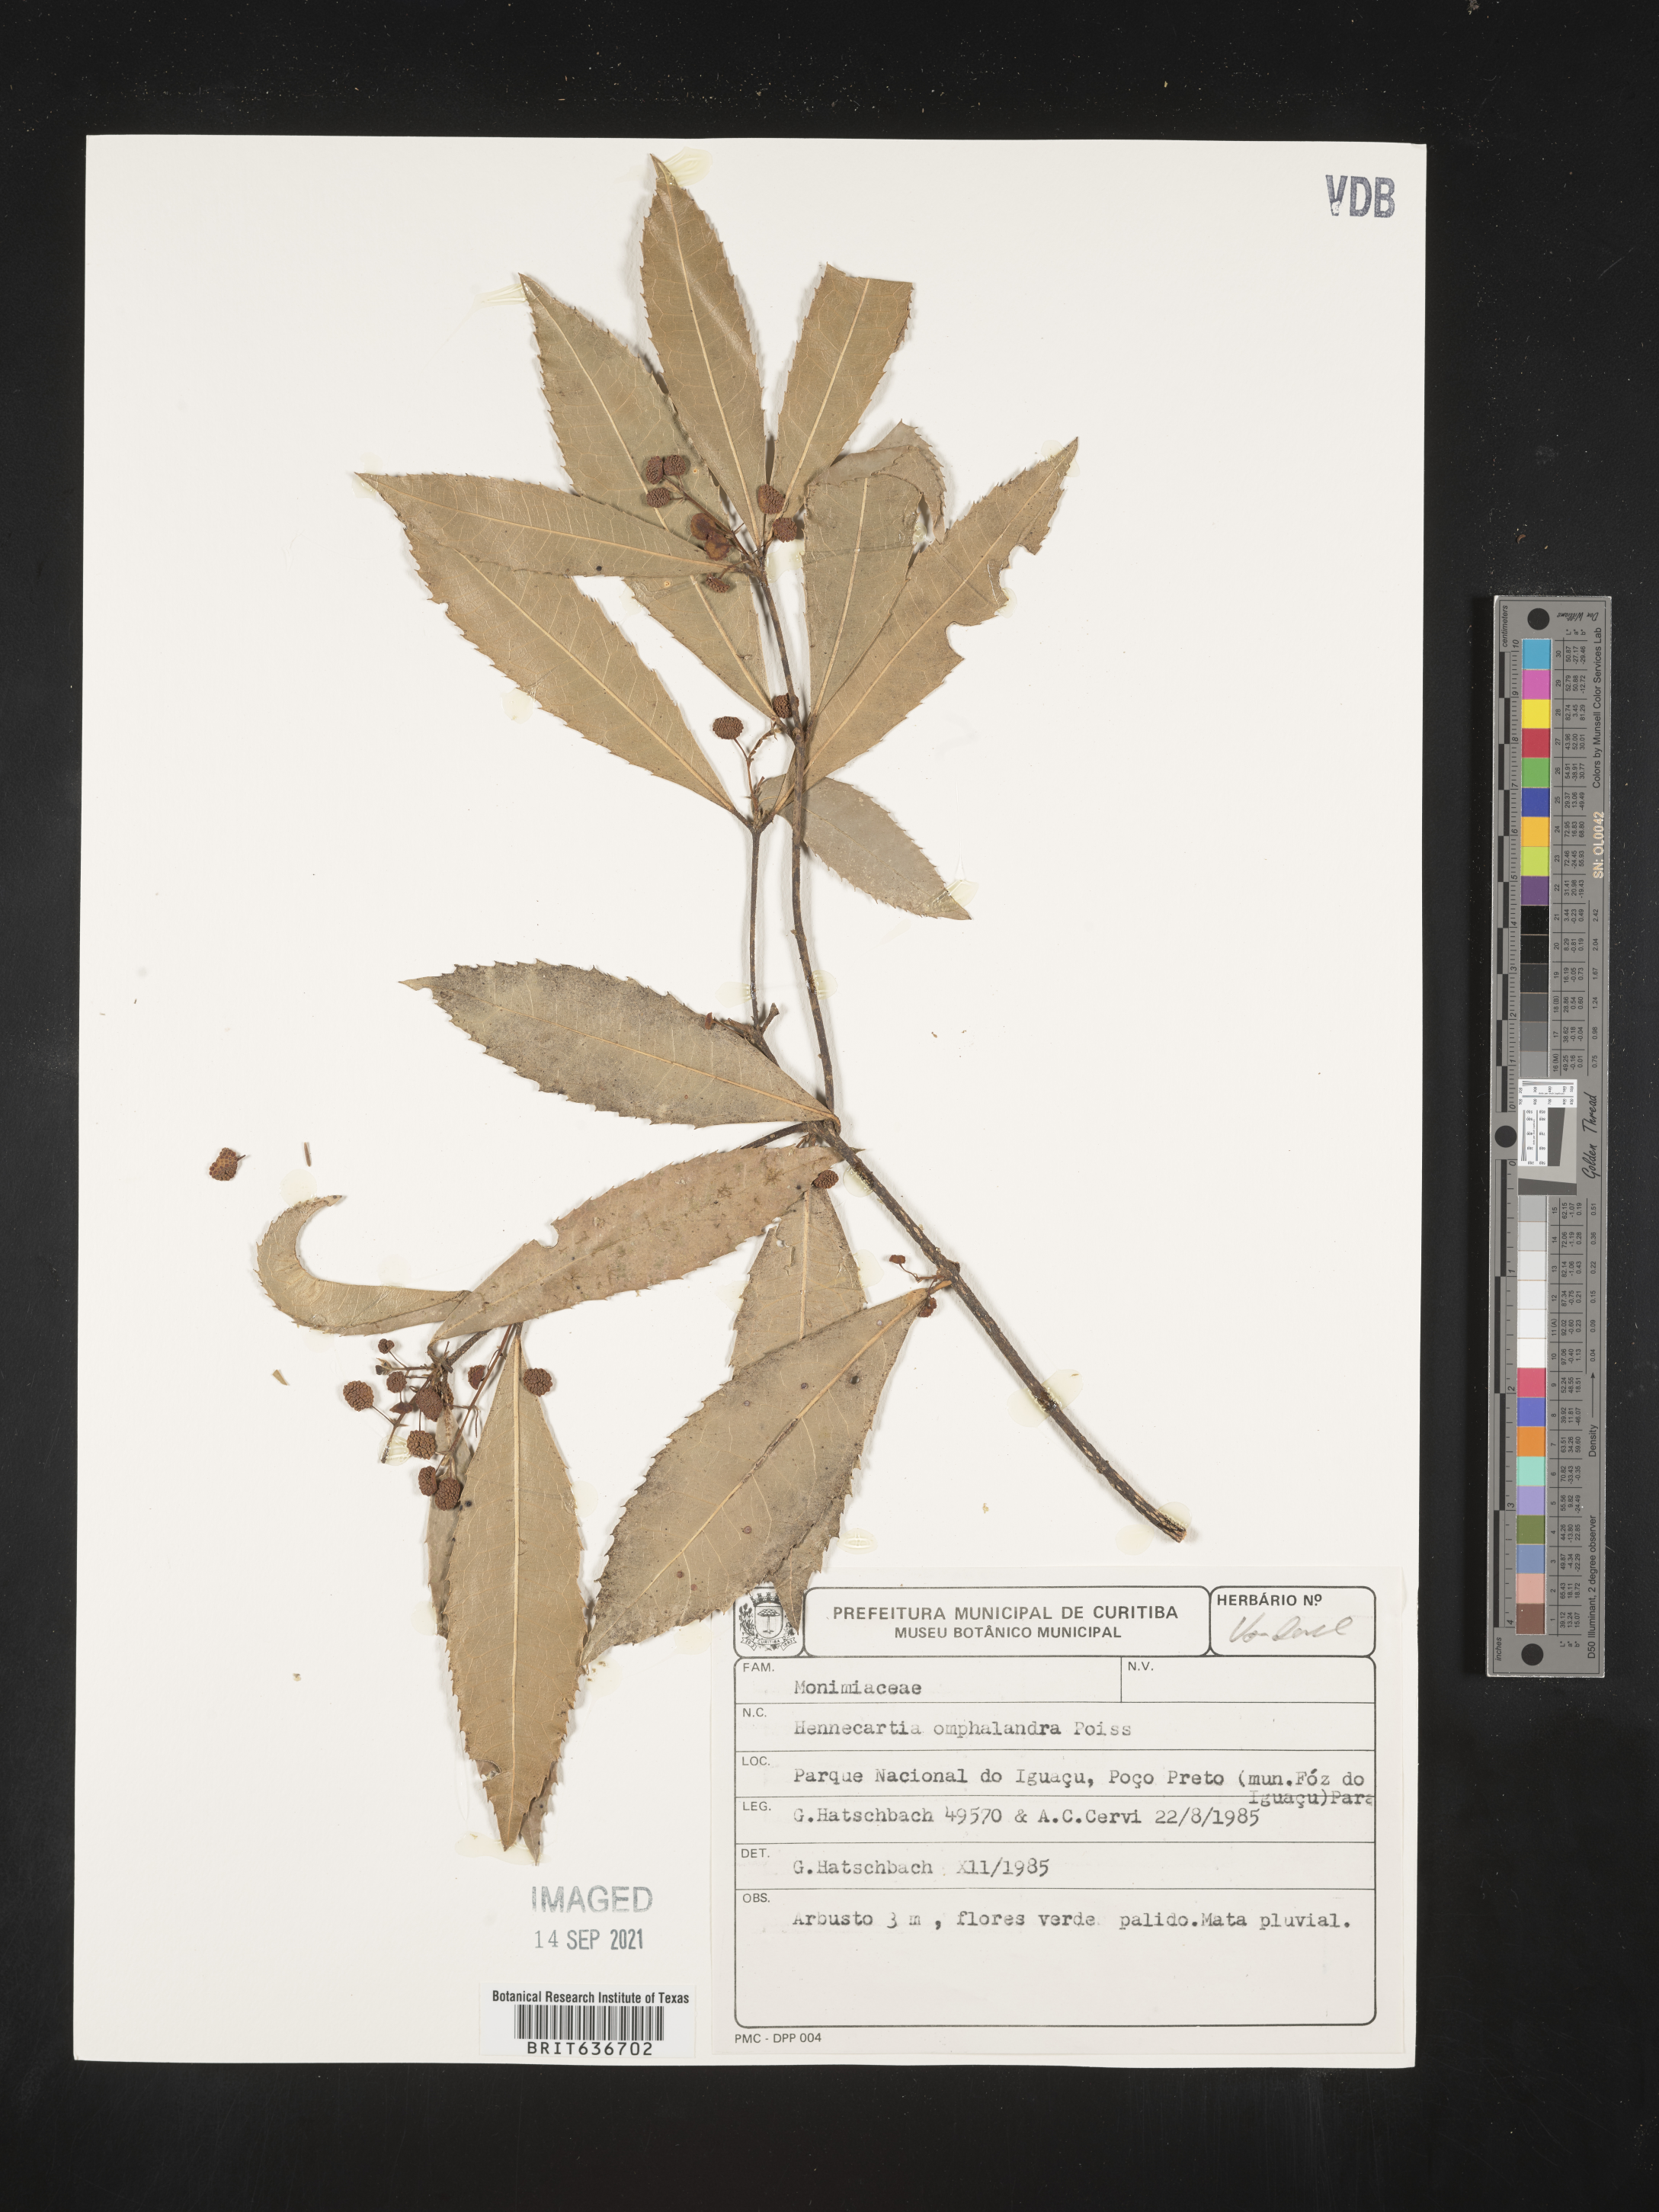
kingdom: Plantae
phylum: Tracheophyta
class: Magnoliopsida
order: Laurales
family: Monimiaceae
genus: Hennecartia
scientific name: Hennecartia
